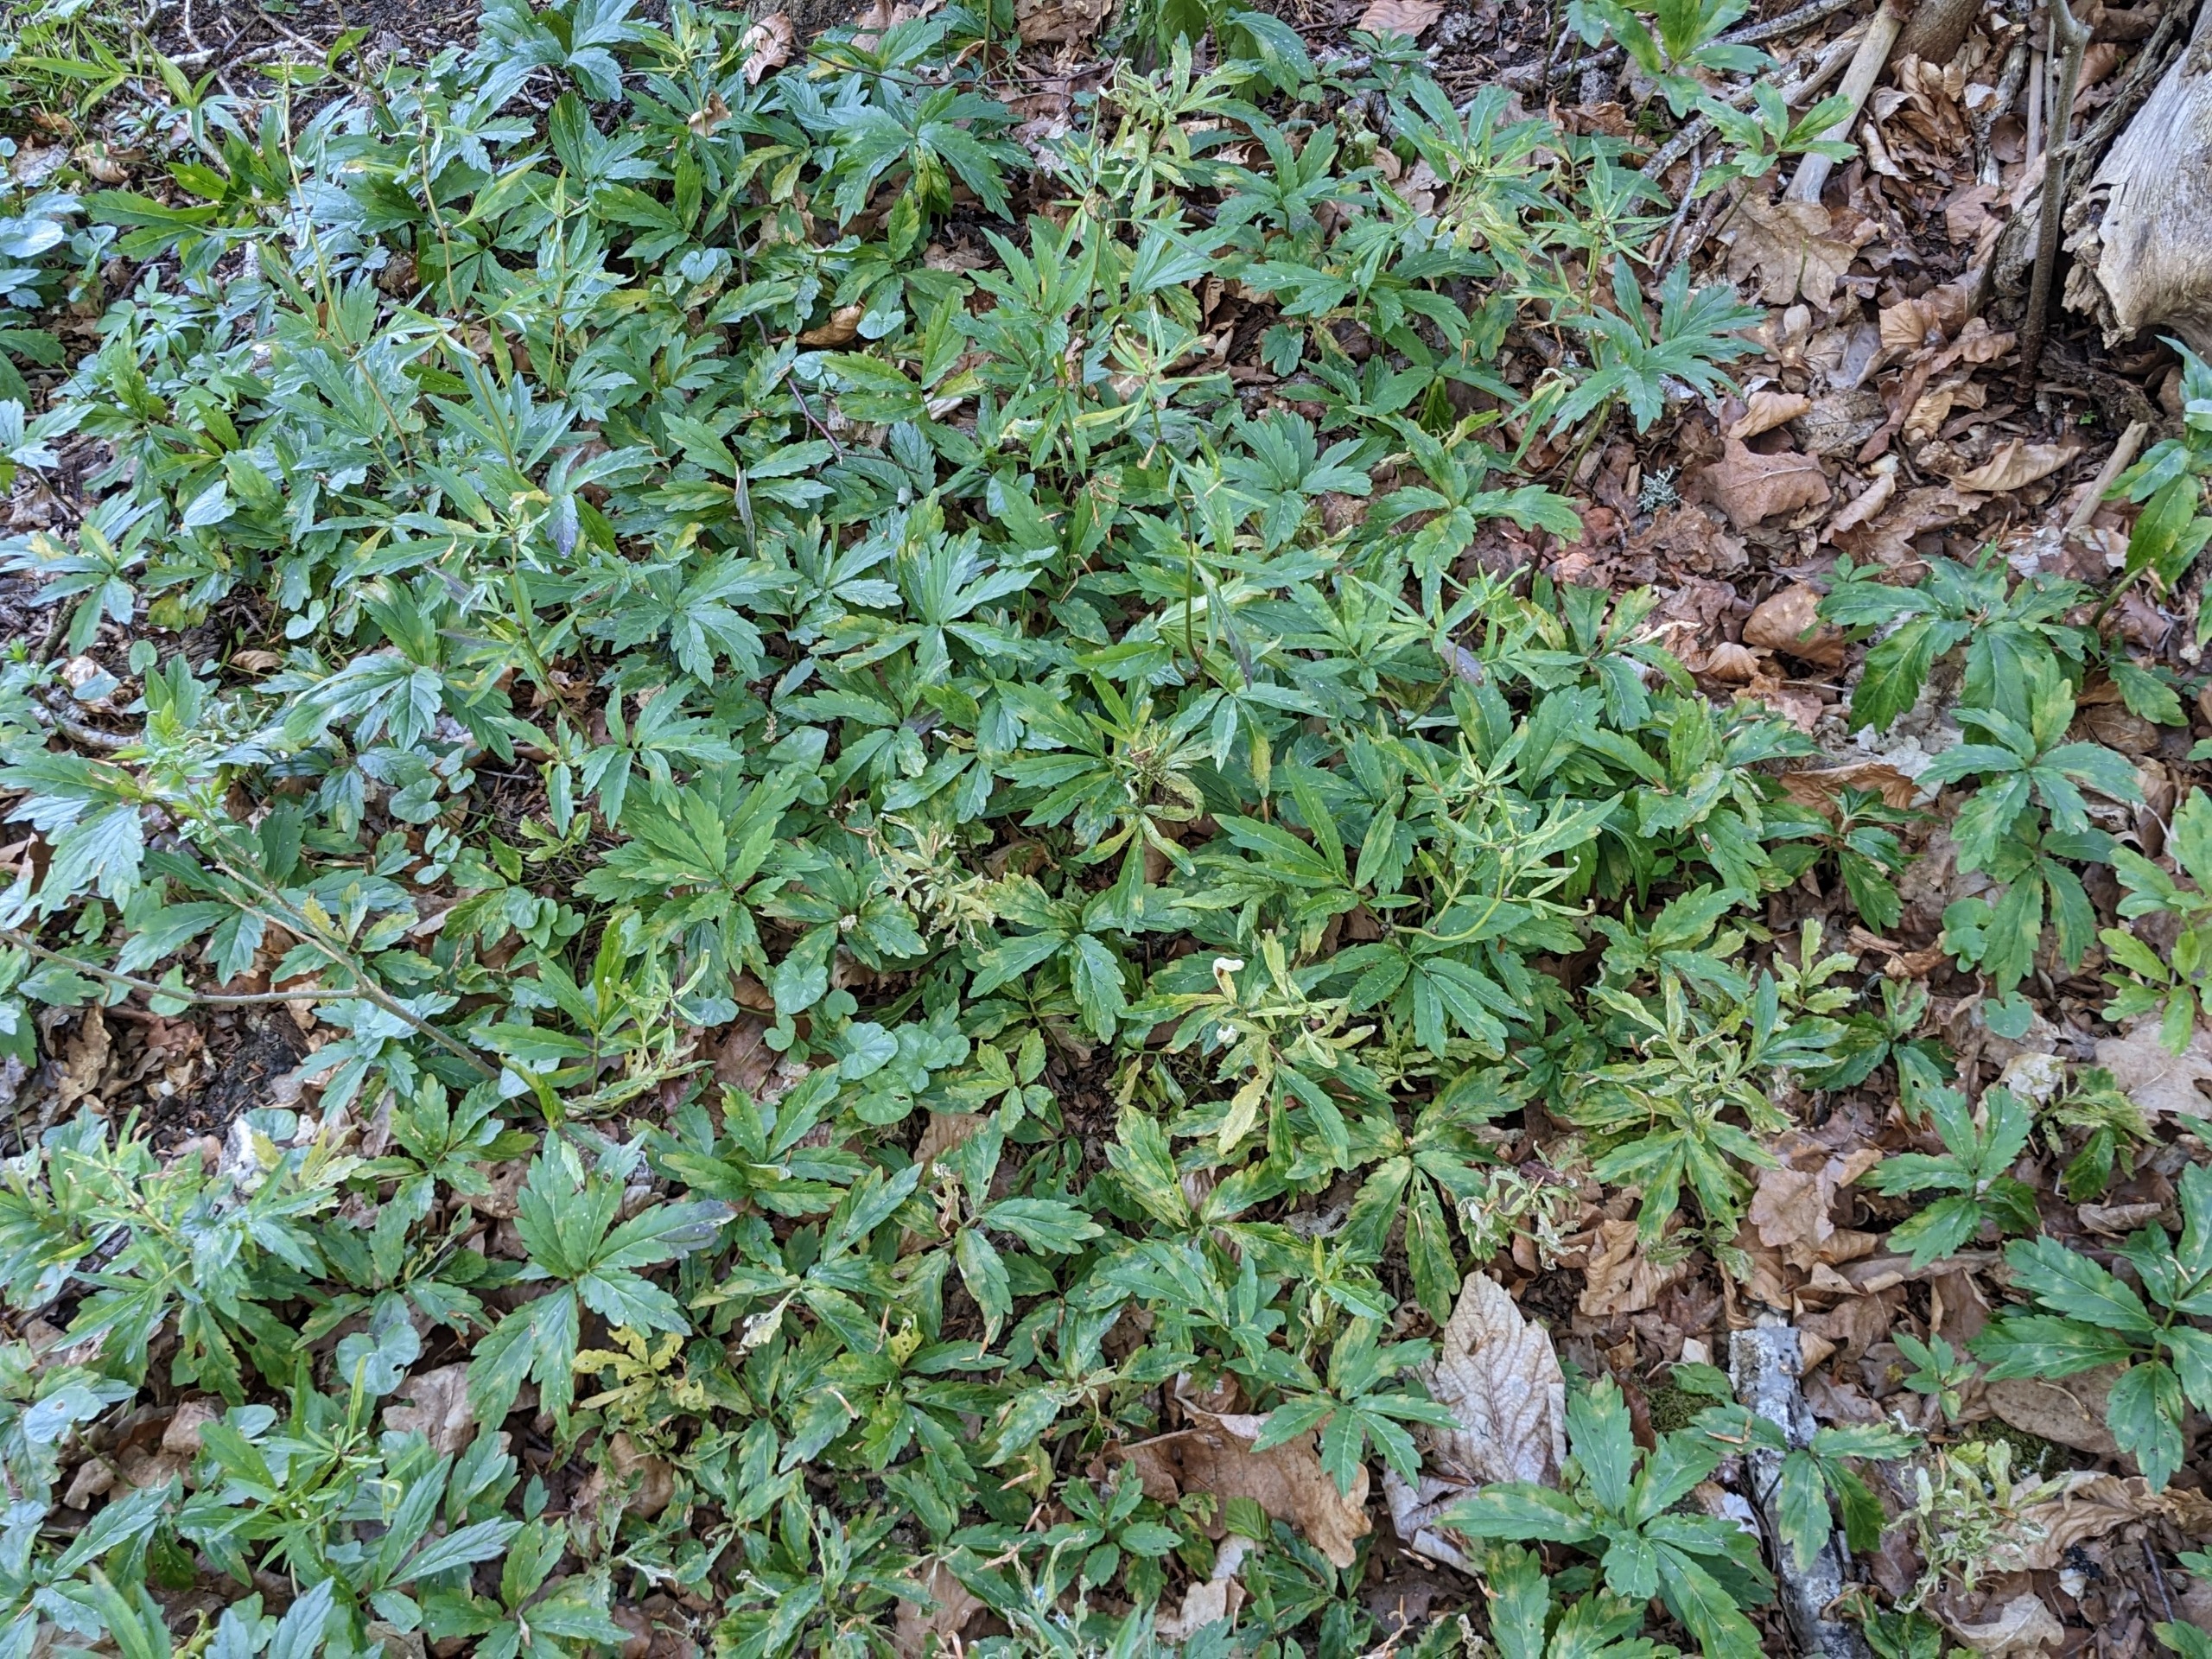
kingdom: Plantae
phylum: Tracheophyta
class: Magnoliopsida
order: Brassicales
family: Brassicaceae
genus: Cardamine
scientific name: Cardamine bulbifera
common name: Tandrod
